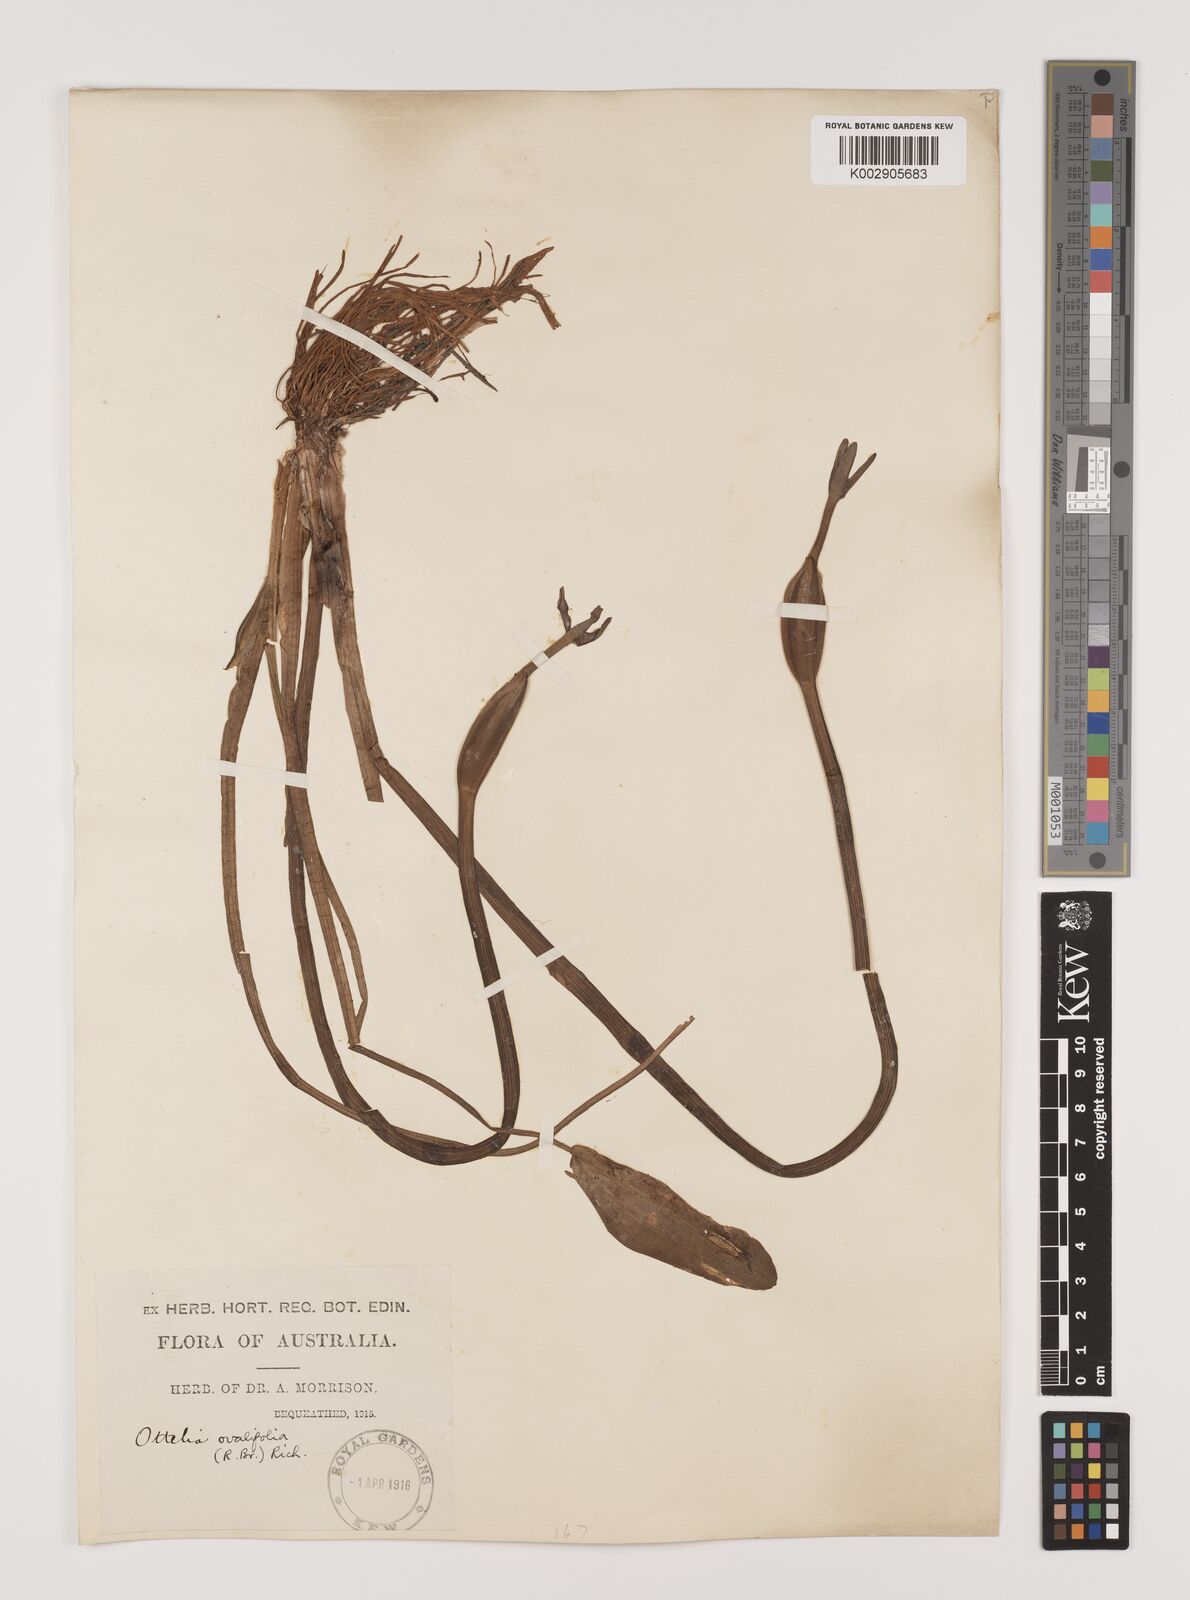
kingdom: Plantae
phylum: Tracheophyta
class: Liliopsida
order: Alismatales
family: Hydrocharitaceae
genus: Ottelia
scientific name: Ottelia ovalifolia
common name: Swamp-lily
